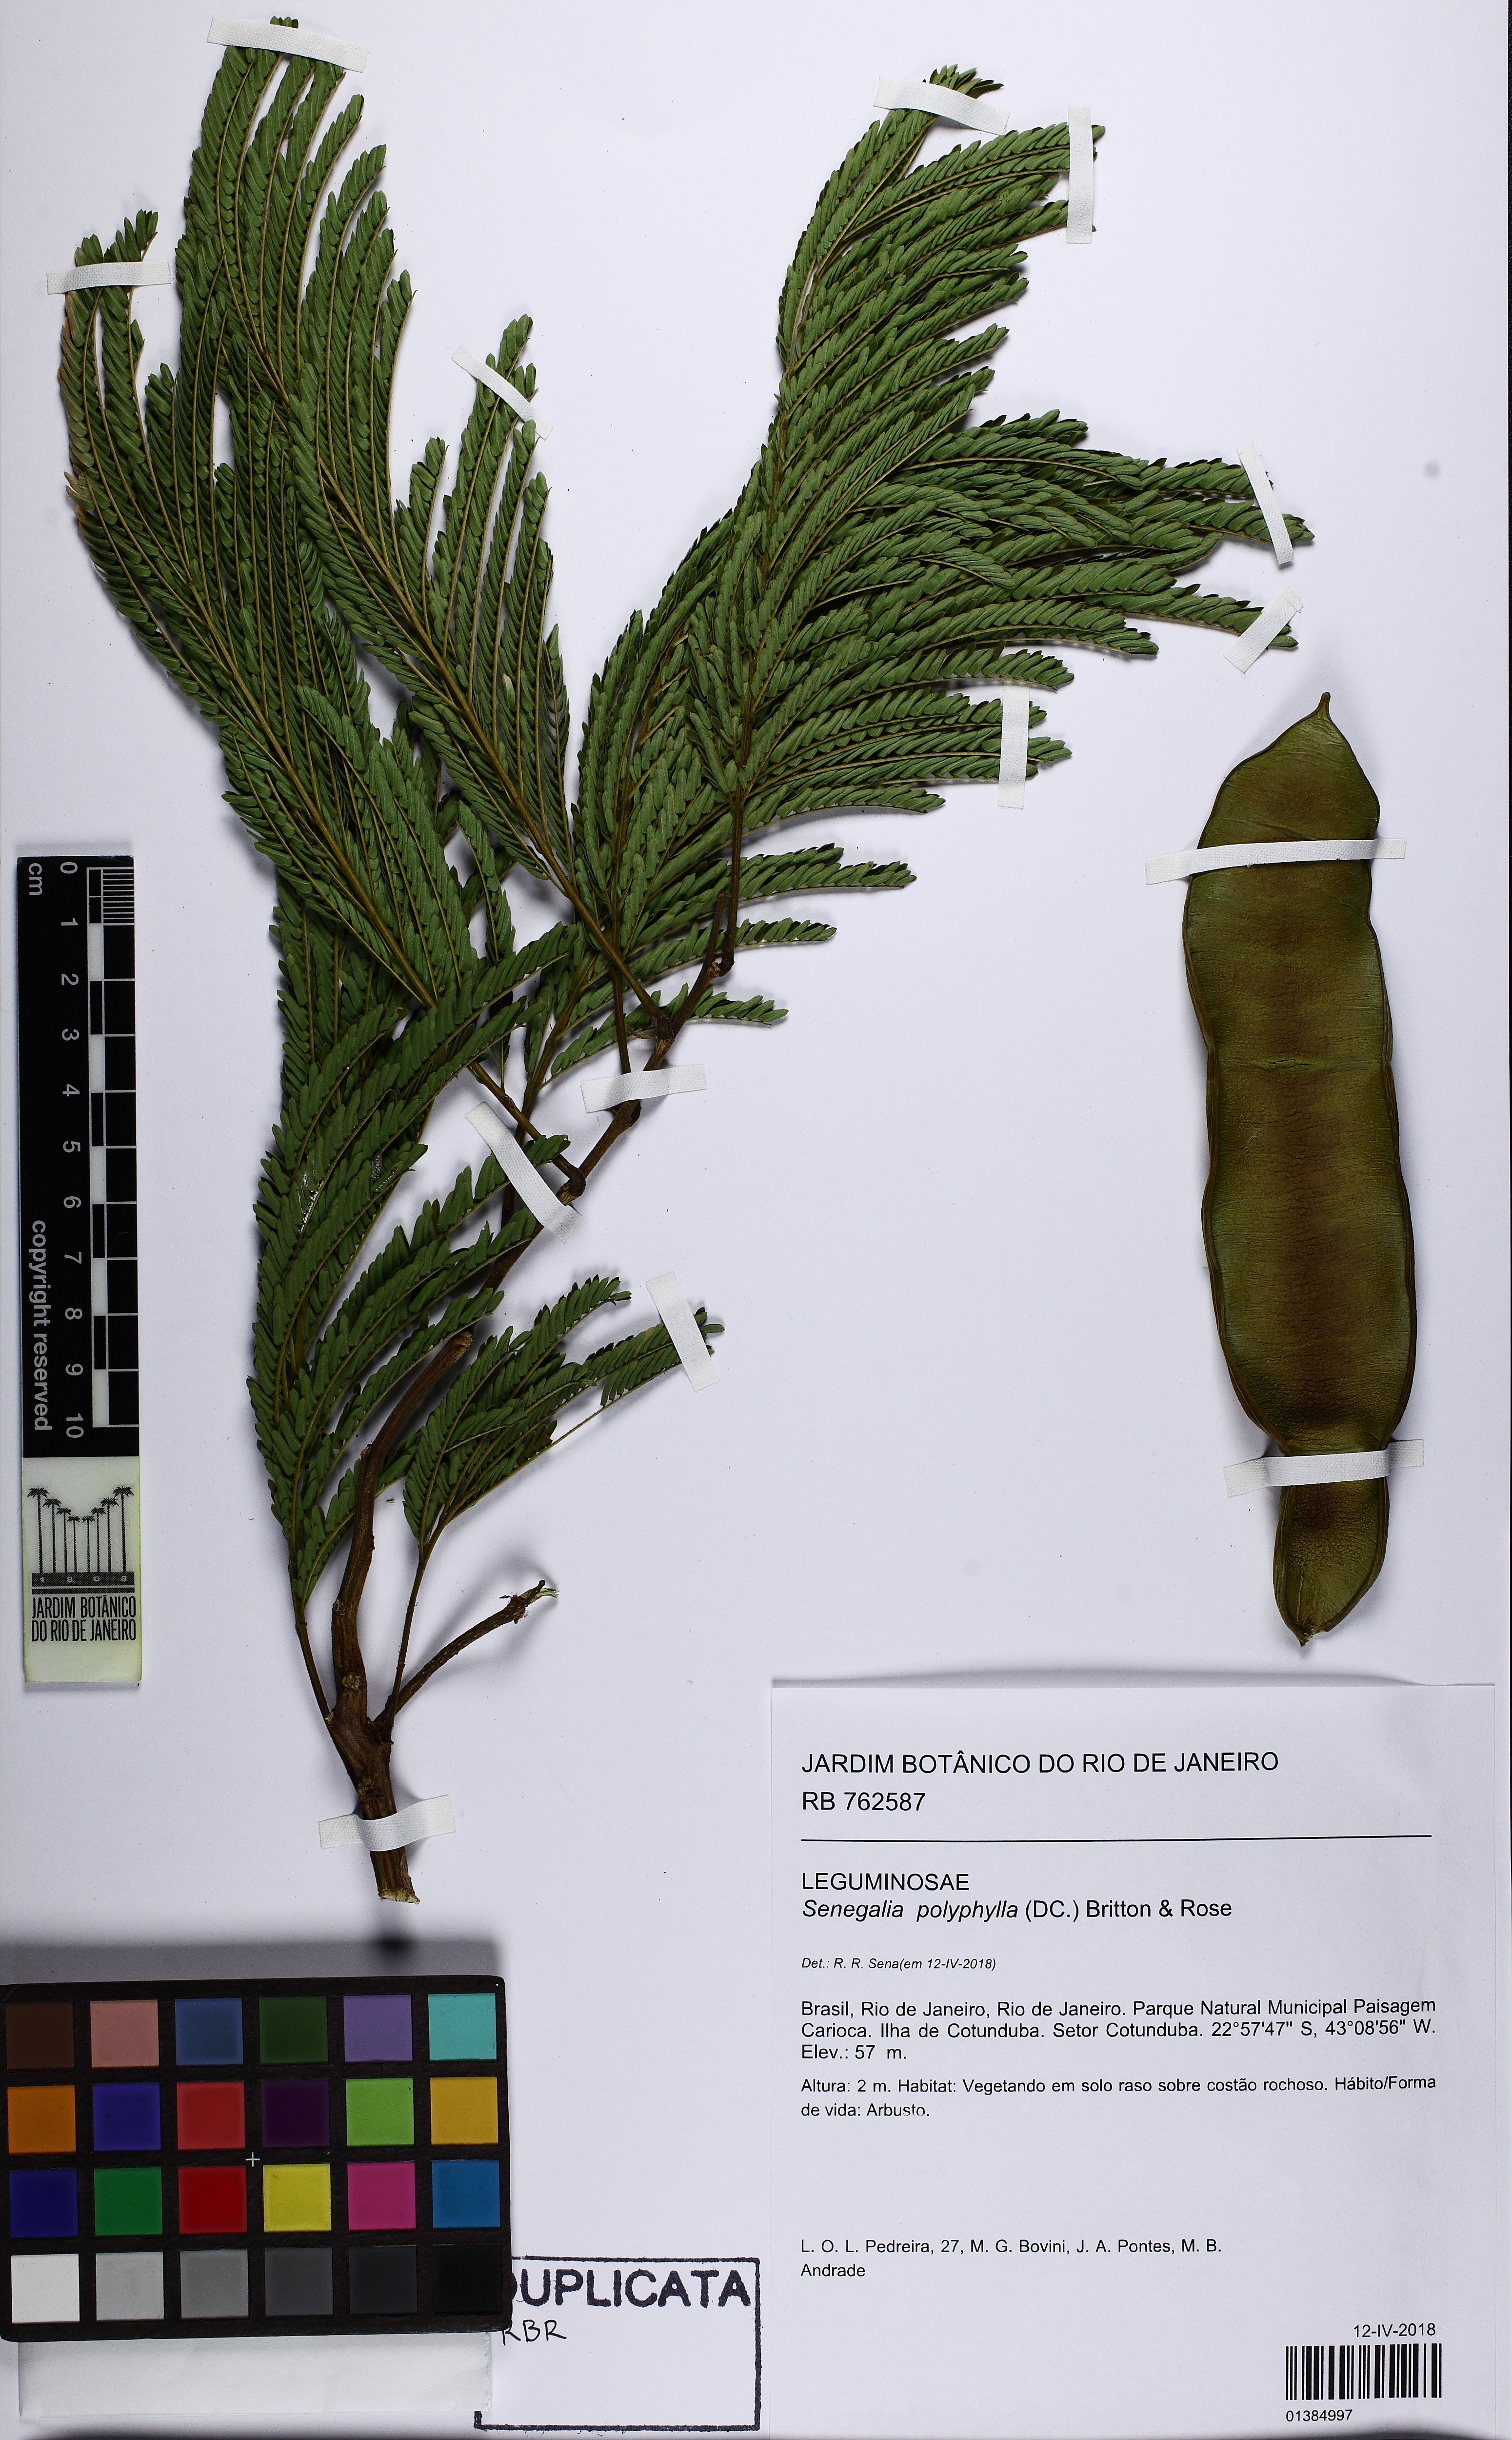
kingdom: Plantae
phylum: Tracheophyta
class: Magnoliopsida
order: Fabales
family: Fabaceae
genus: Senegalia
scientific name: Senegalia polyphylla
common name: White-tamarind
